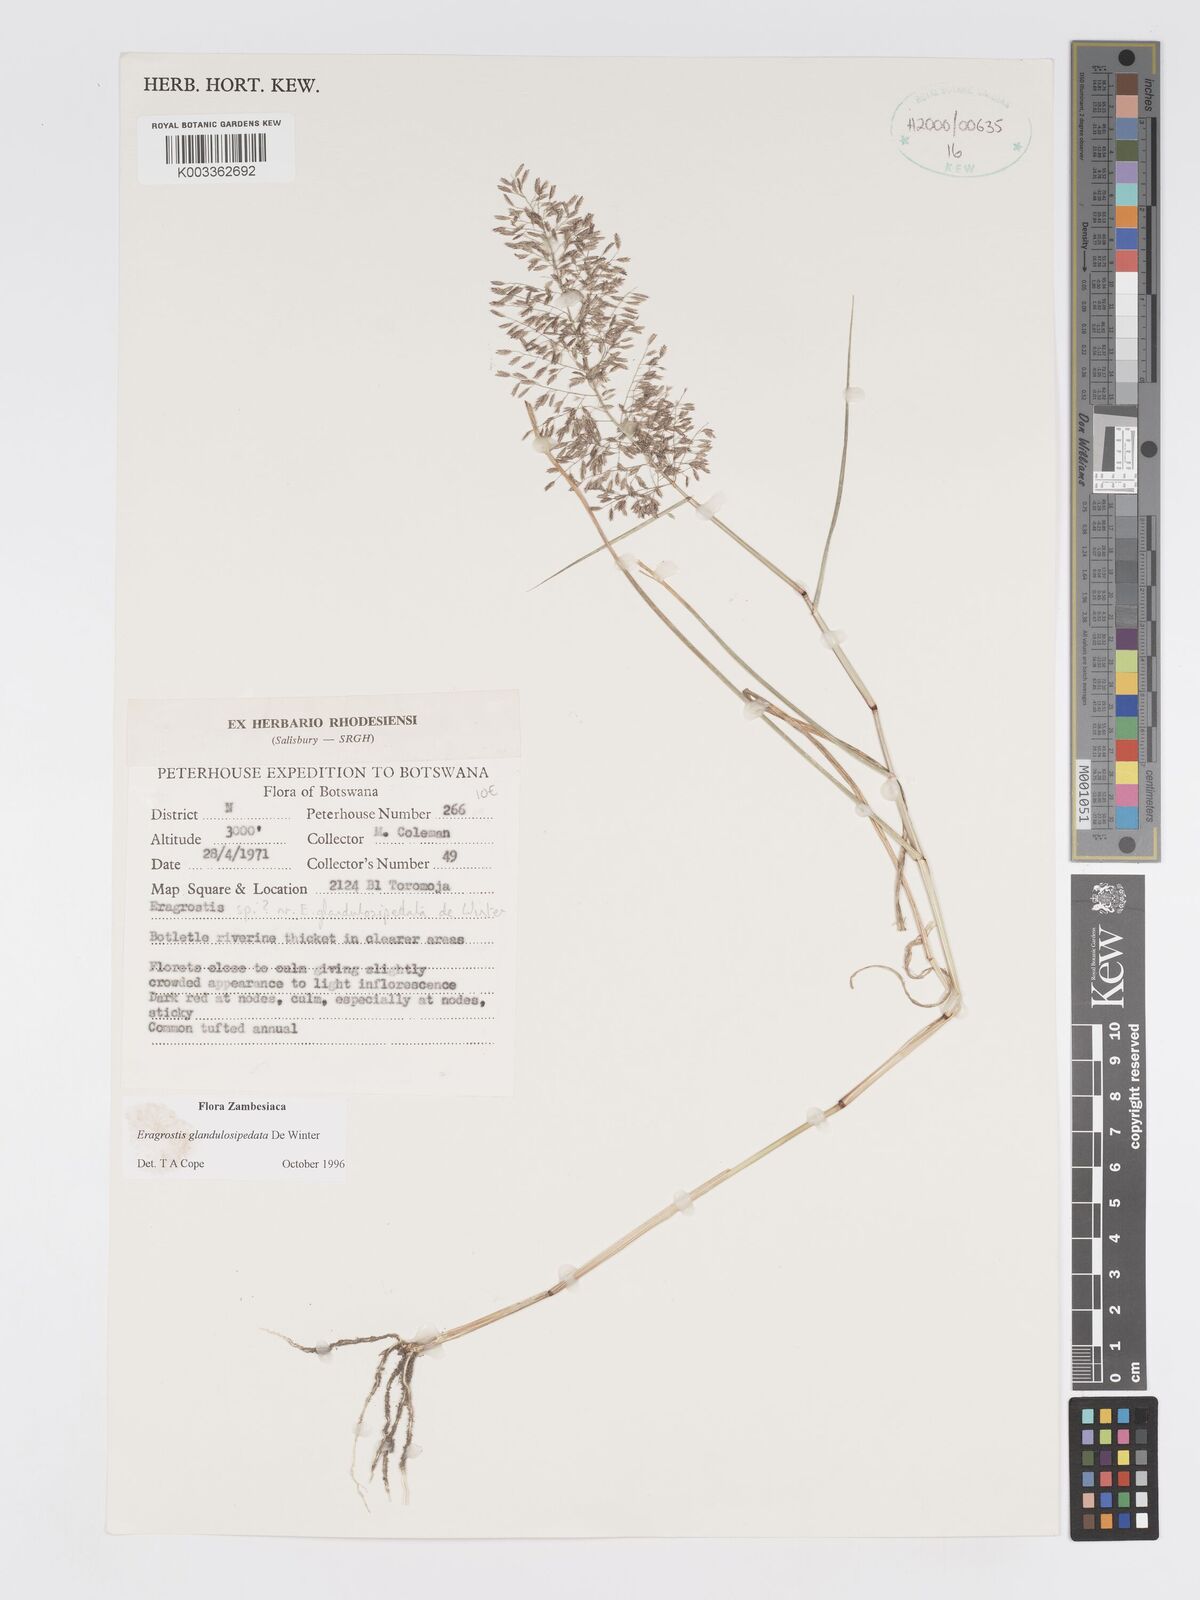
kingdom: Plantae
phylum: Tracheophyta
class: Liliopsida
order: Poales
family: Poaceae
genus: Eragrostis
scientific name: Eragrostis glandulosipedata
